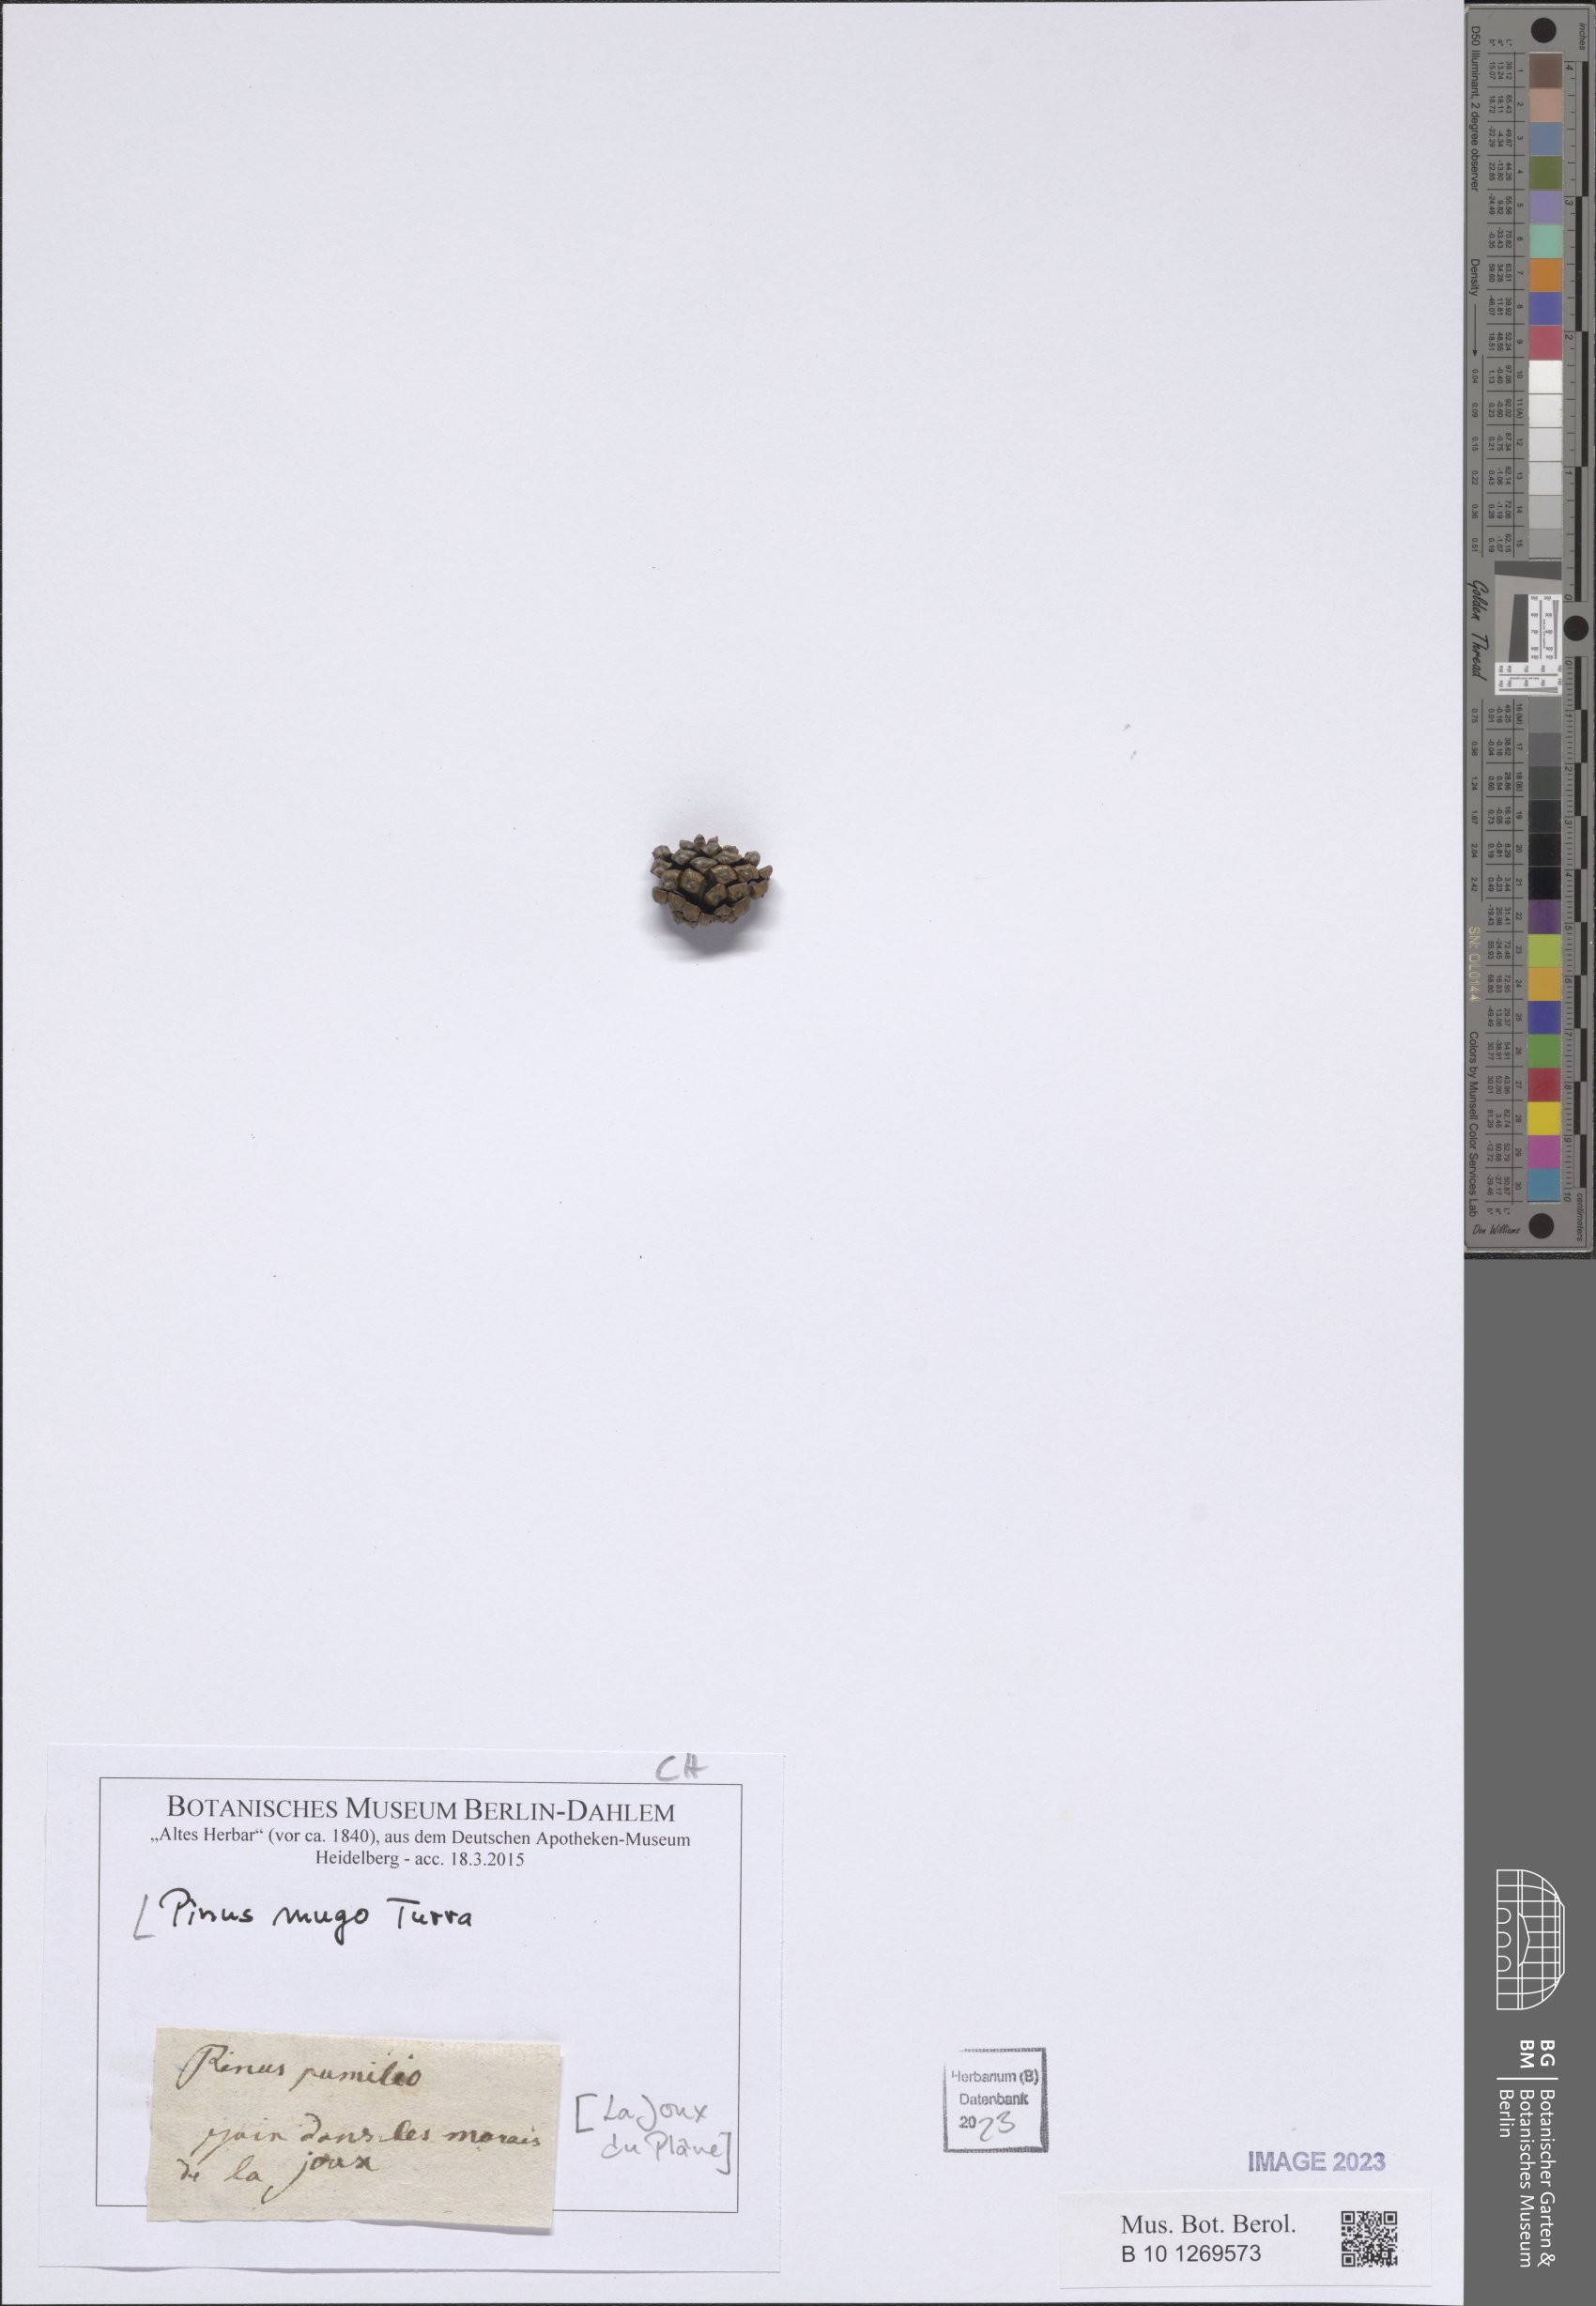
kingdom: Plantae
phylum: Tracheophyta
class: Pinopsida
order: Pinales
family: Pinaceae
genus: Pinus
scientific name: Pinus mugo
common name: Mugo pine
